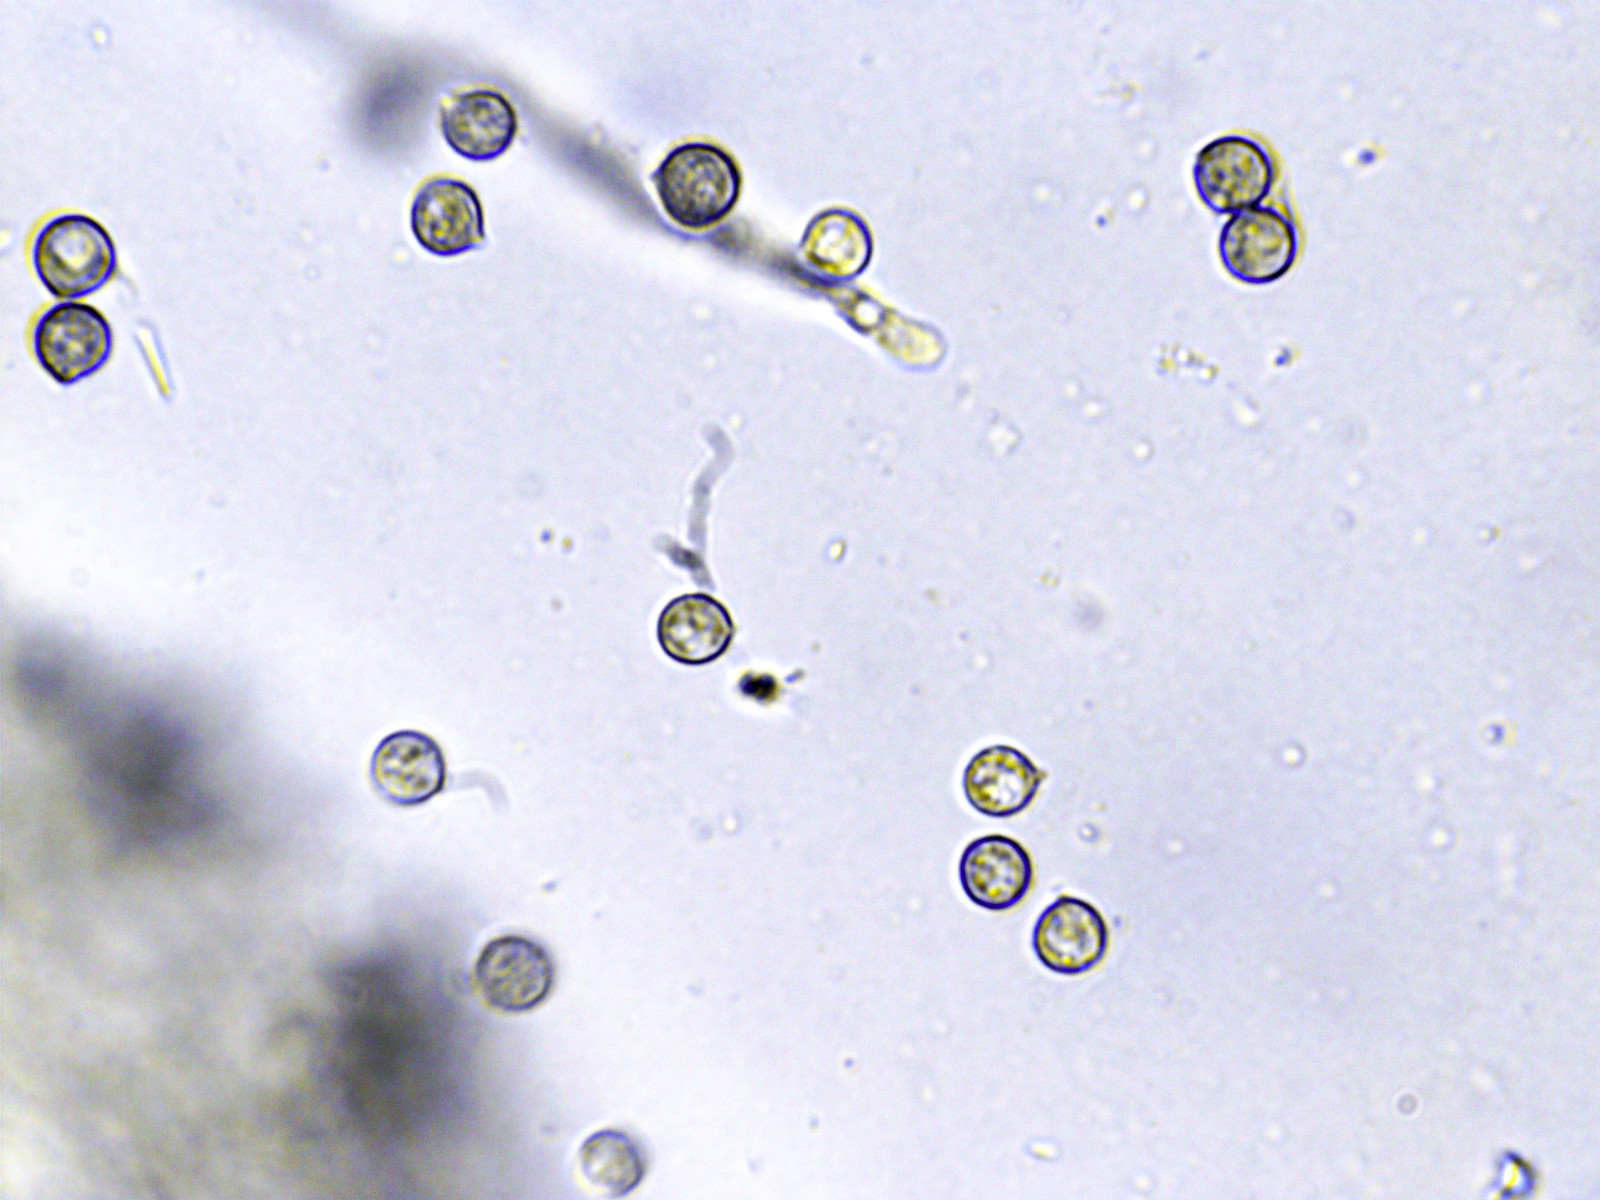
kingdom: Fungi
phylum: Basidiomycota
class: Agaricomycetes
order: Agaricales
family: Crepidotaceae
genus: Crepidotus
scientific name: Crepidotus applanatus
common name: tvefarvet muslingesvamp
